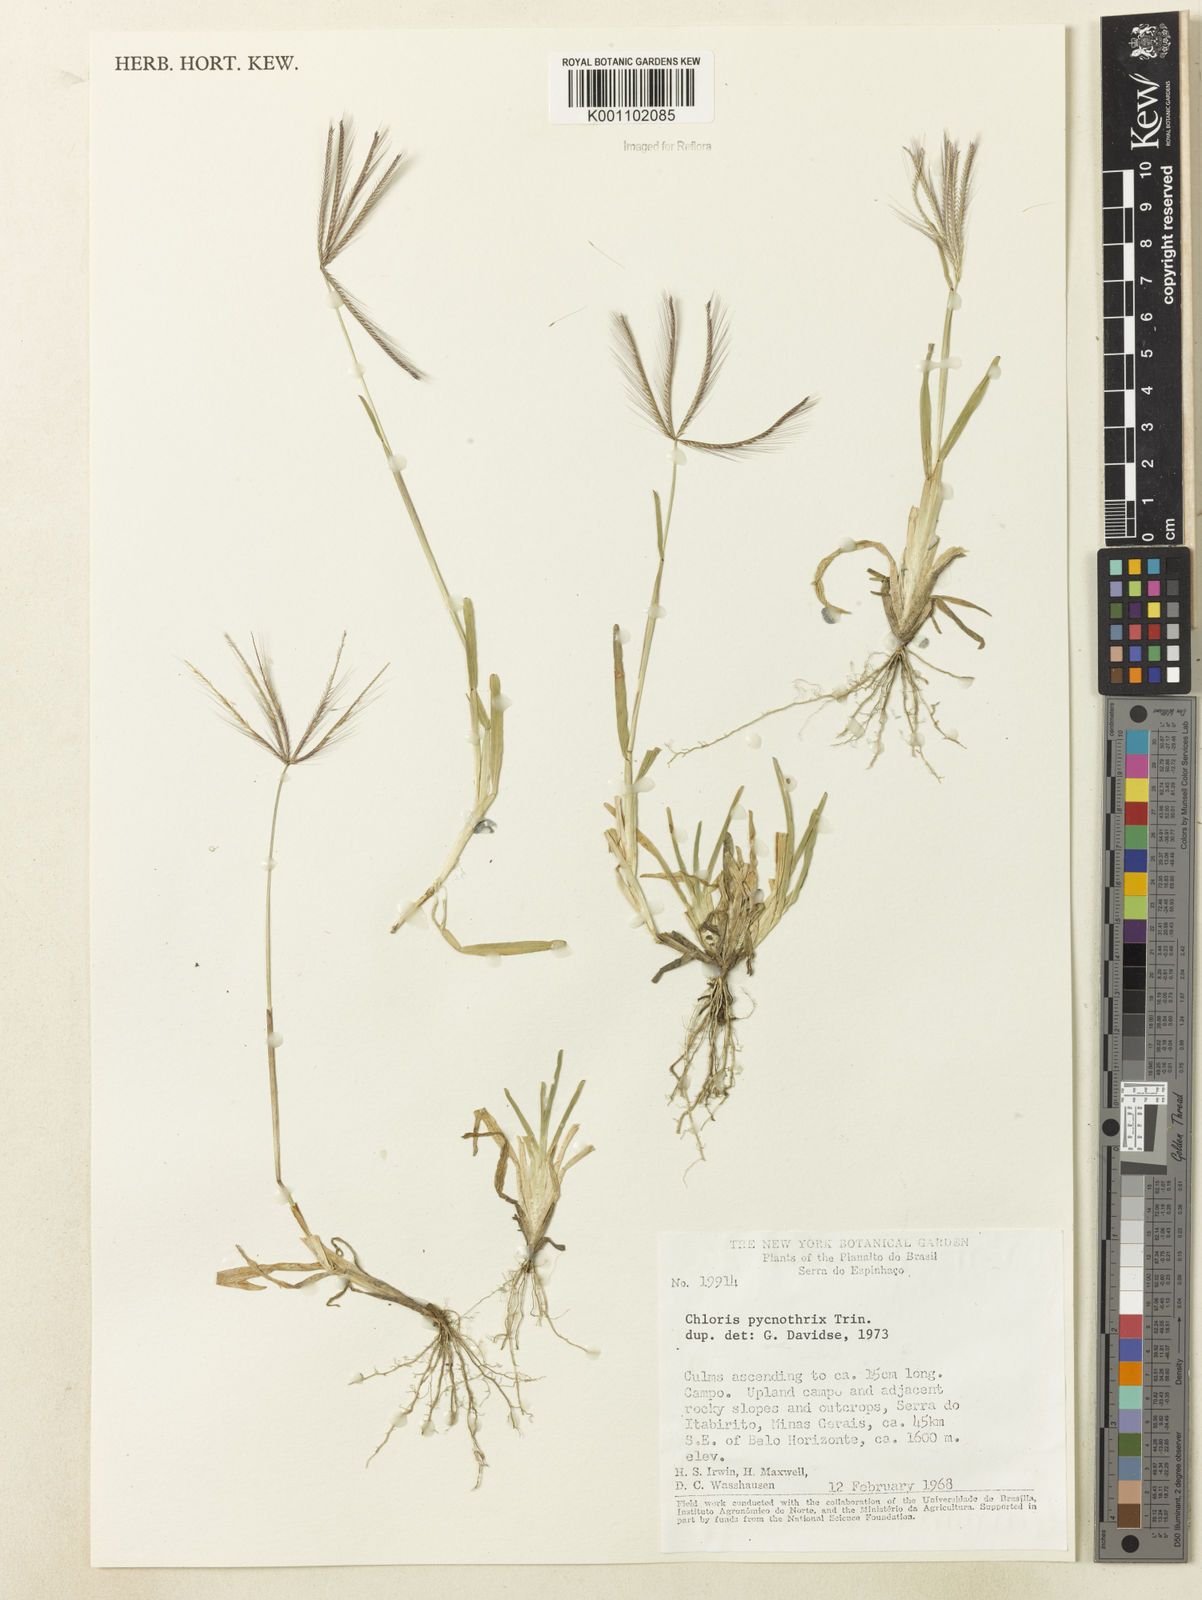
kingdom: Plantae
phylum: Tracheophyta
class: Liliopsida
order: Poales
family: Poaceae
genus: Chloris
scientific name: Chloris pycnothrix
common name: Spiderweb chloris
